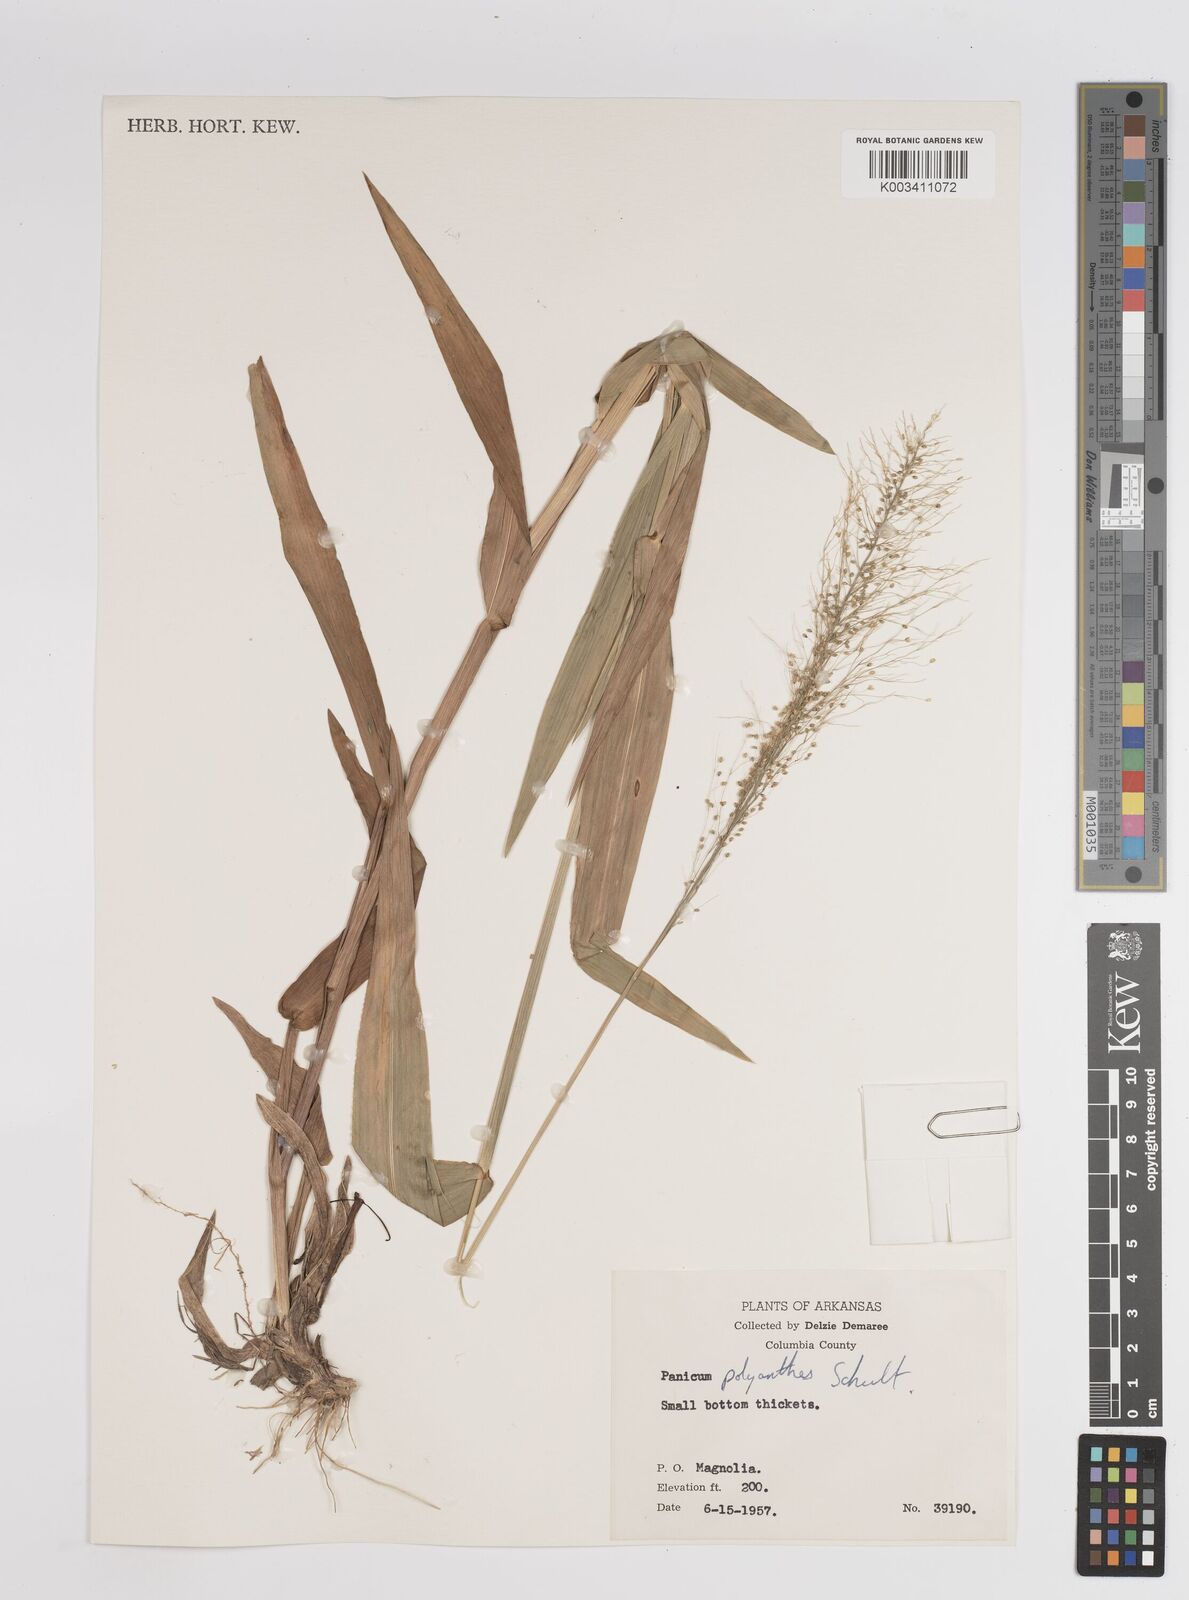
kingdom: Plantae
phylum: Tracheophyta
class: Liliopsida
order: Poales
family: Poaceae
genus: Dichanthelium
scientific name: Dichanthelium polyanthes
